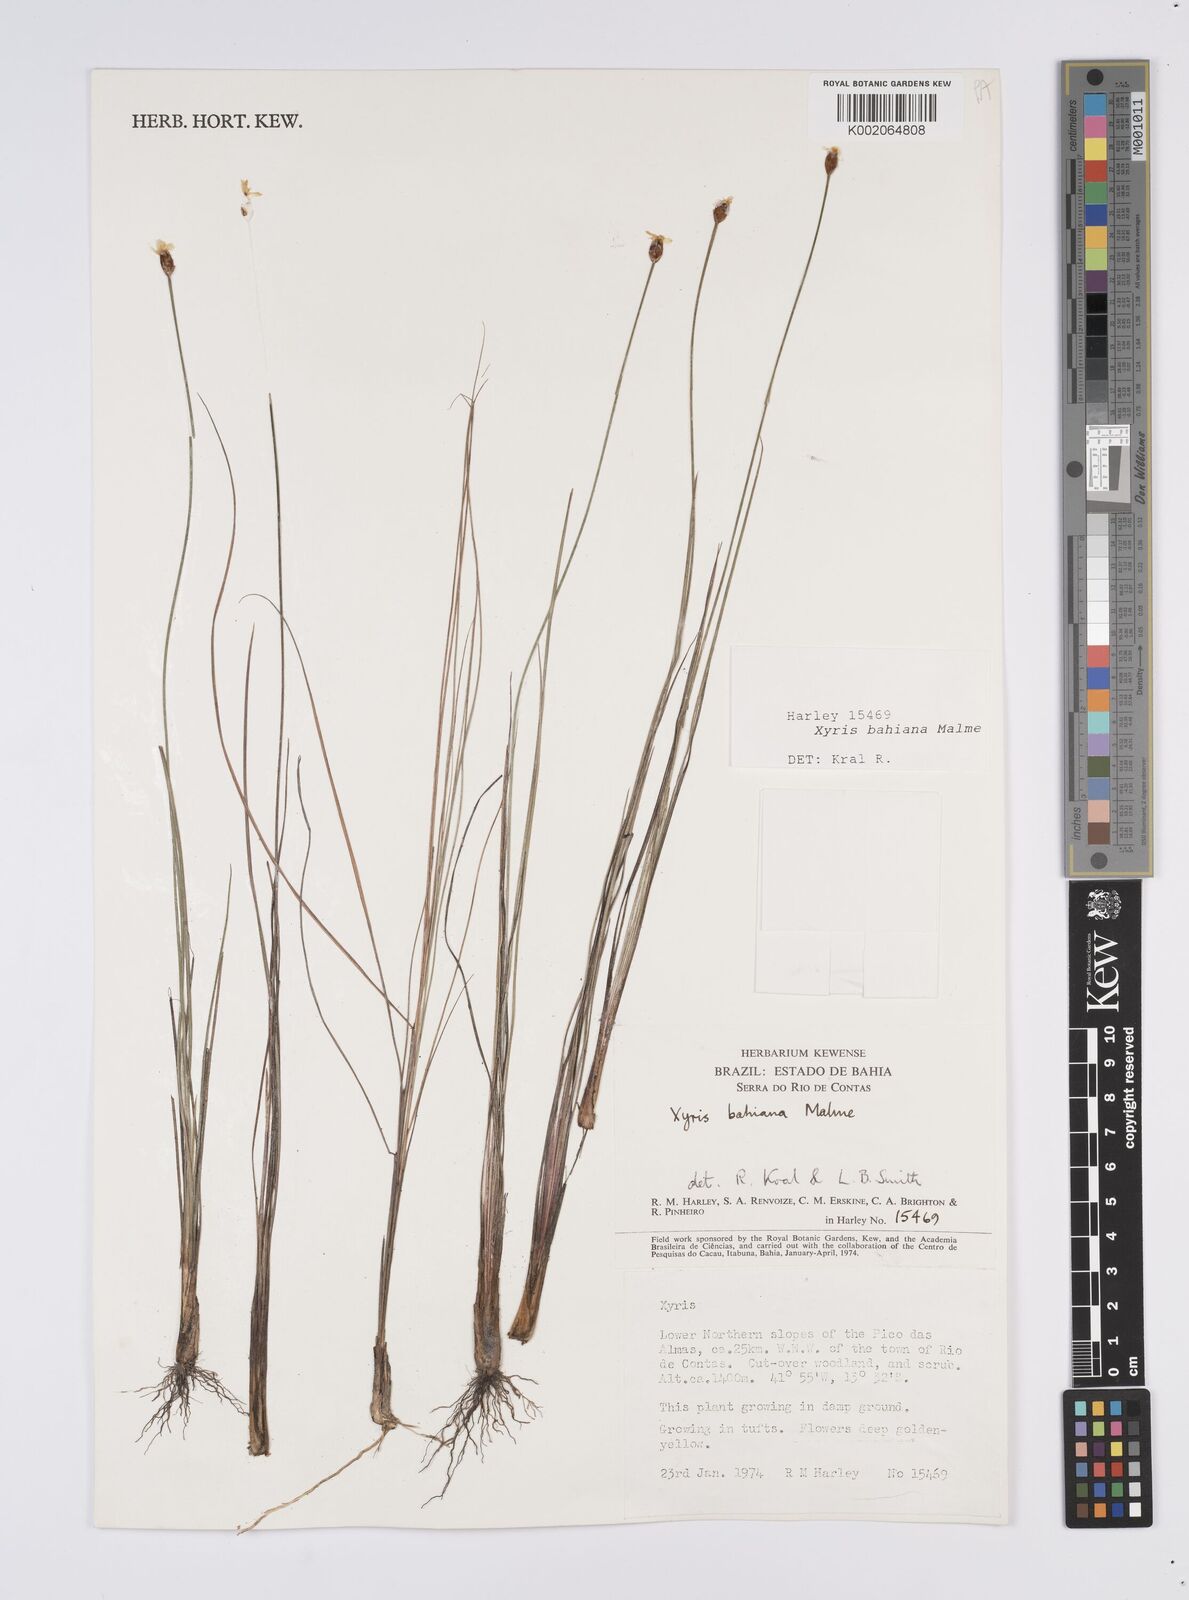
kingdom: Plantae
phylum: Tracheophyta
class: Liliopsida
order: Poales
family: Xyridaceae
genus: Xyris
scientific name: Xyris bahiana
